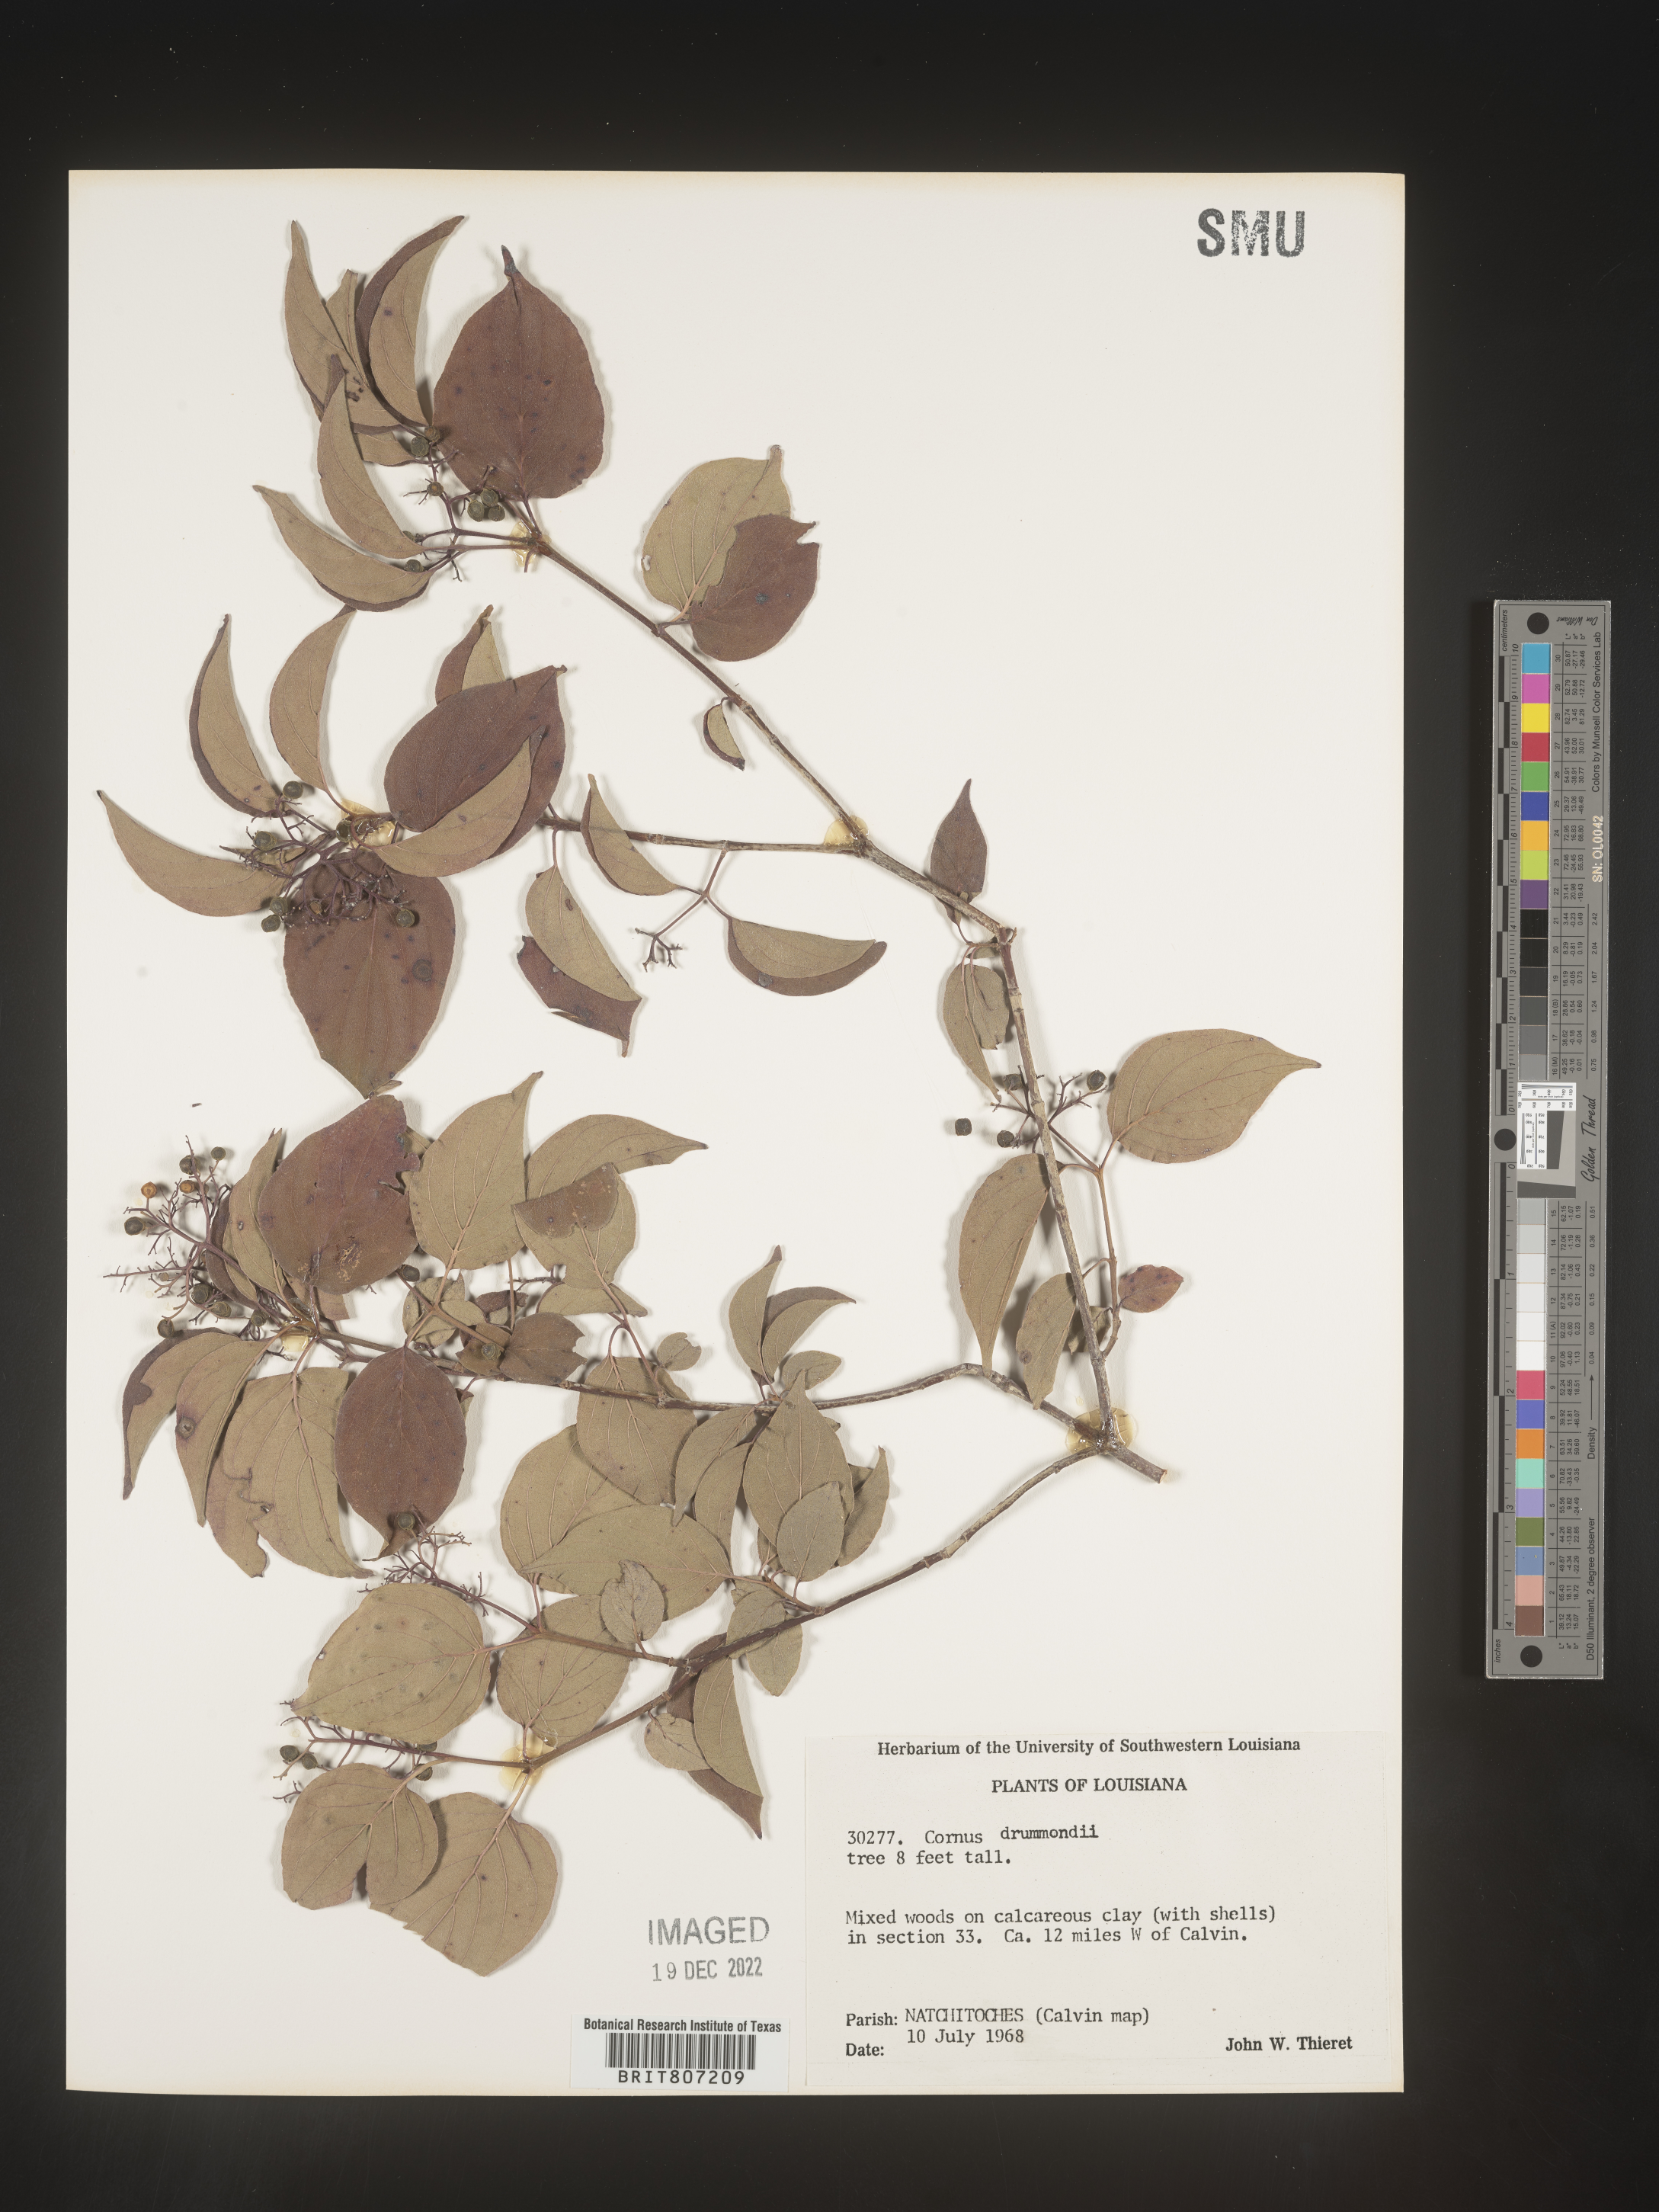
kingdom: Plantae
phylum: Tracheophyta
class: Magnoliopsida
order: Cornales
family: Cornaceae
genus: Cornus
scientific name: Cornus drummondii
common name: Rough-leaf dogwood
